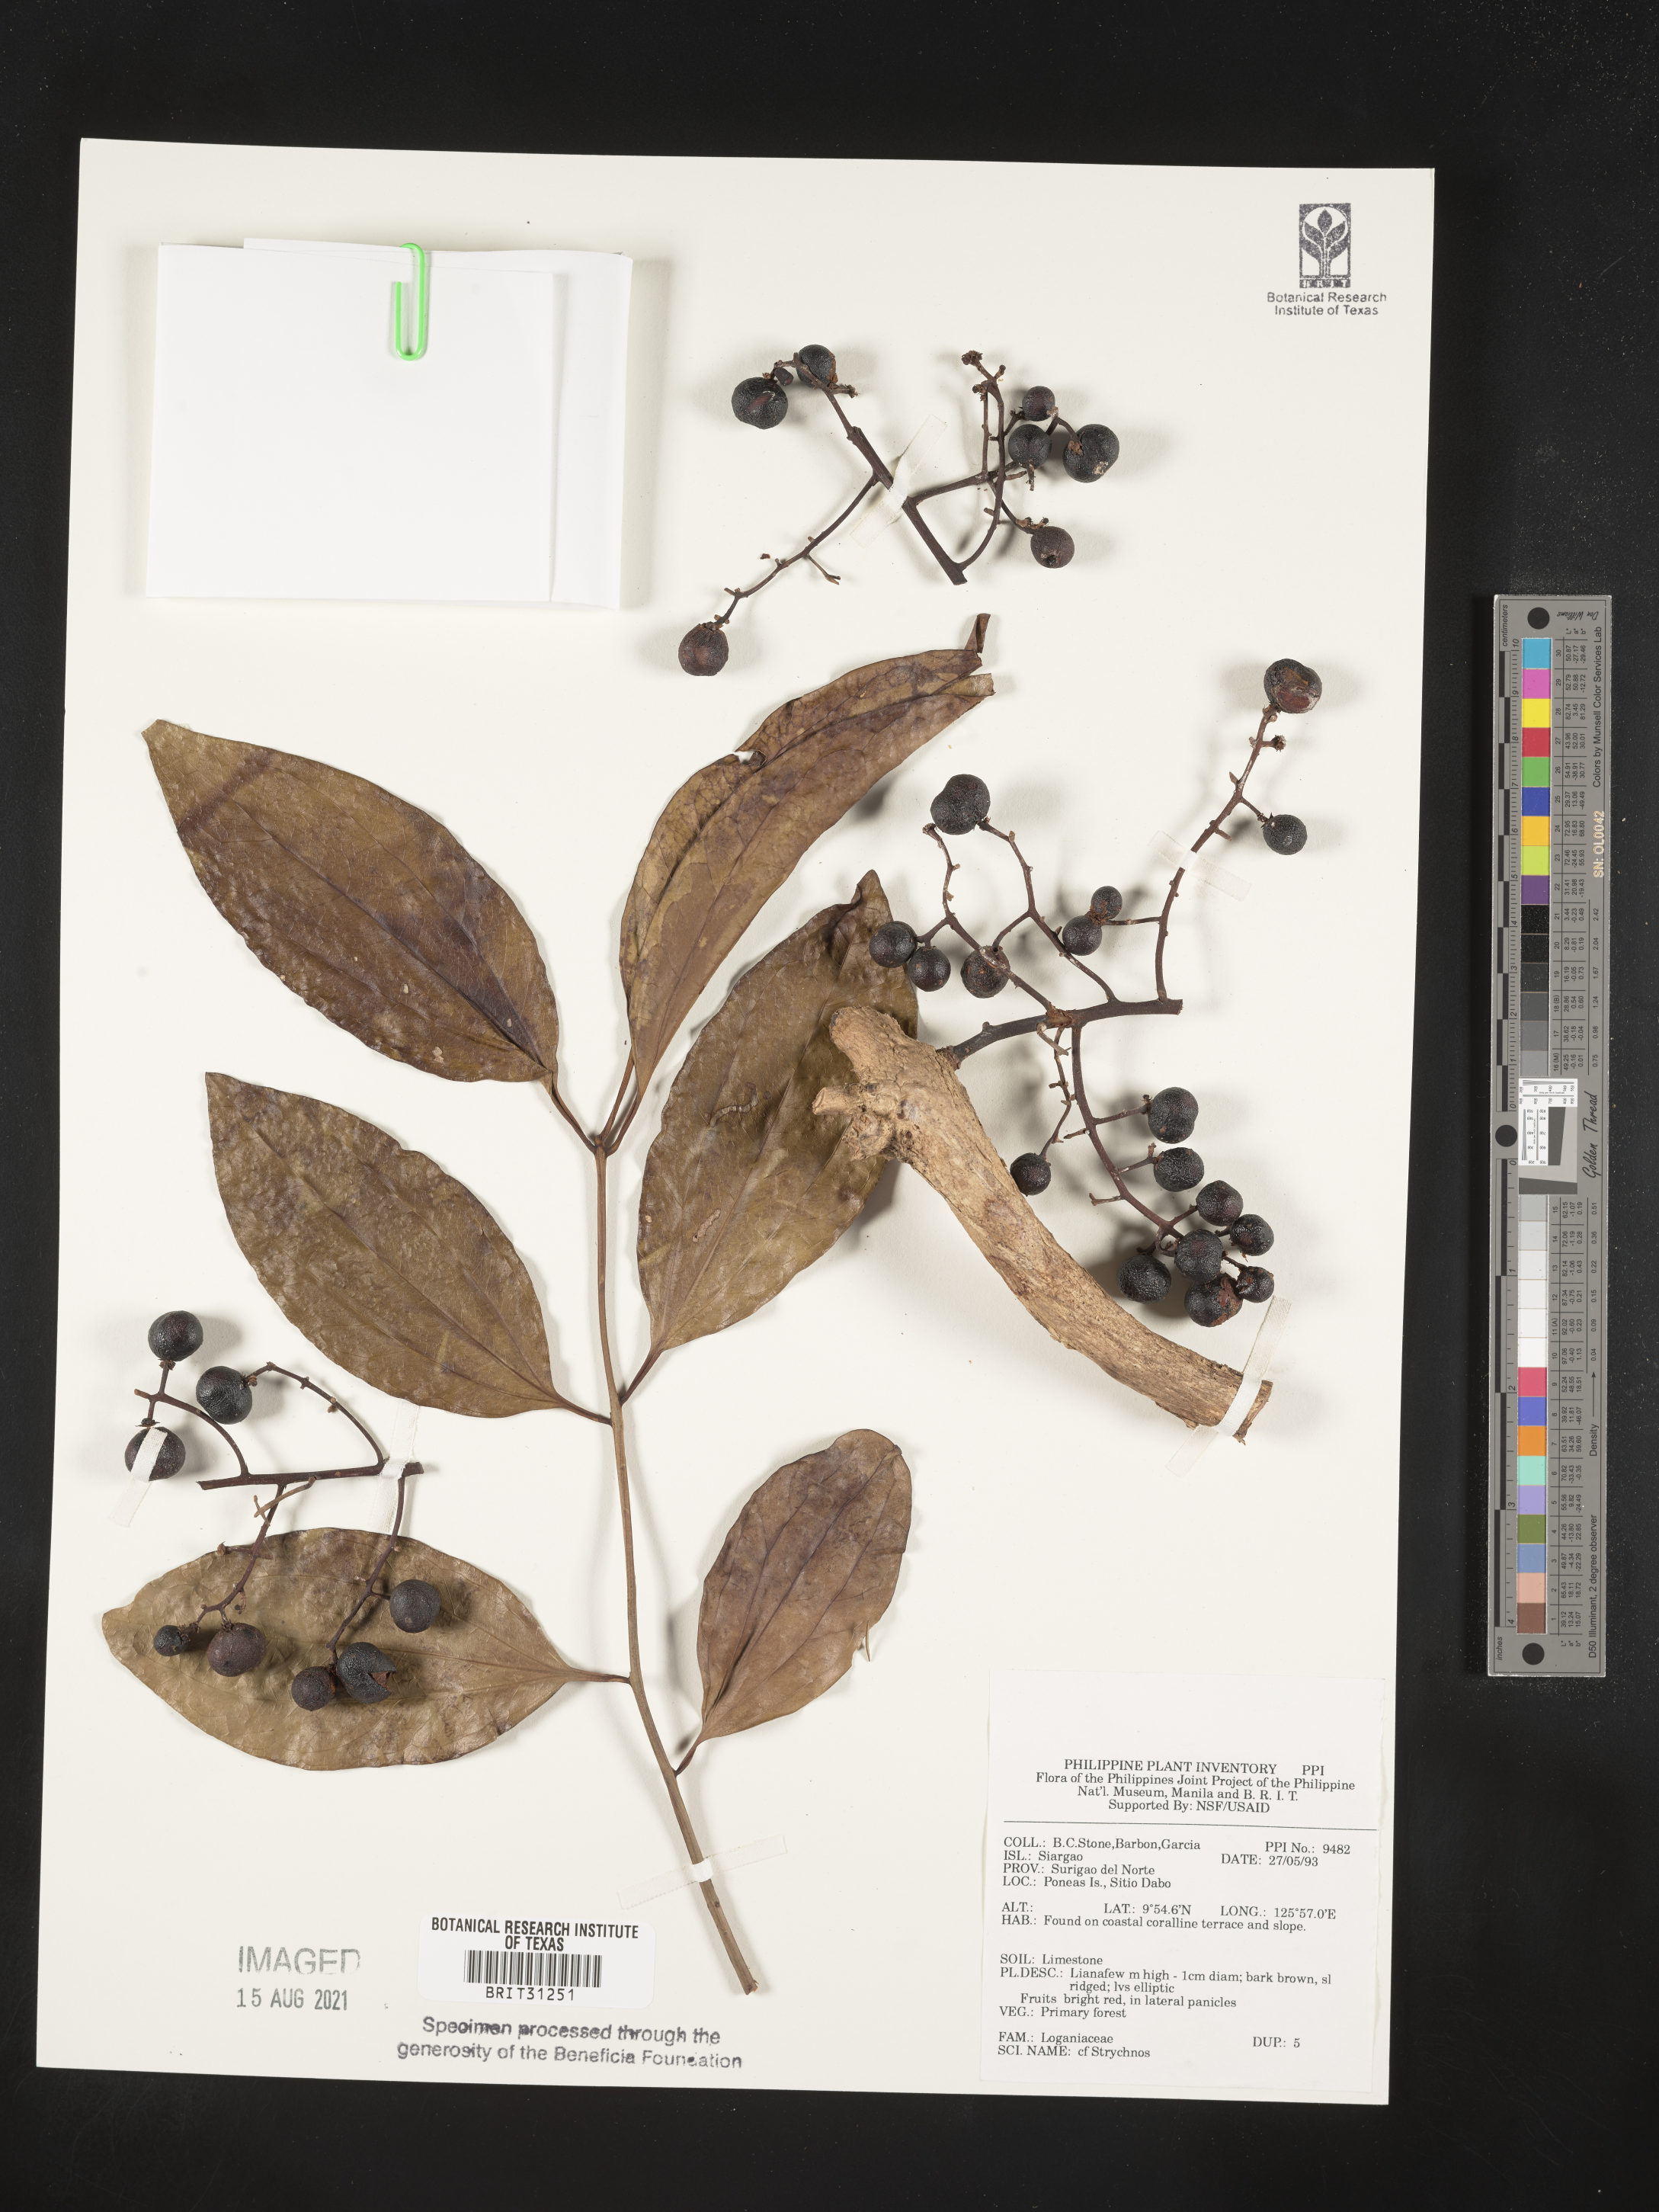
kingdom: Plantae
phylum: Tracheophyta
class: Magnoliopsida
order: Gentianales
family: Loganiaceae
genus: Strychnos
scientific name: Strychnos
